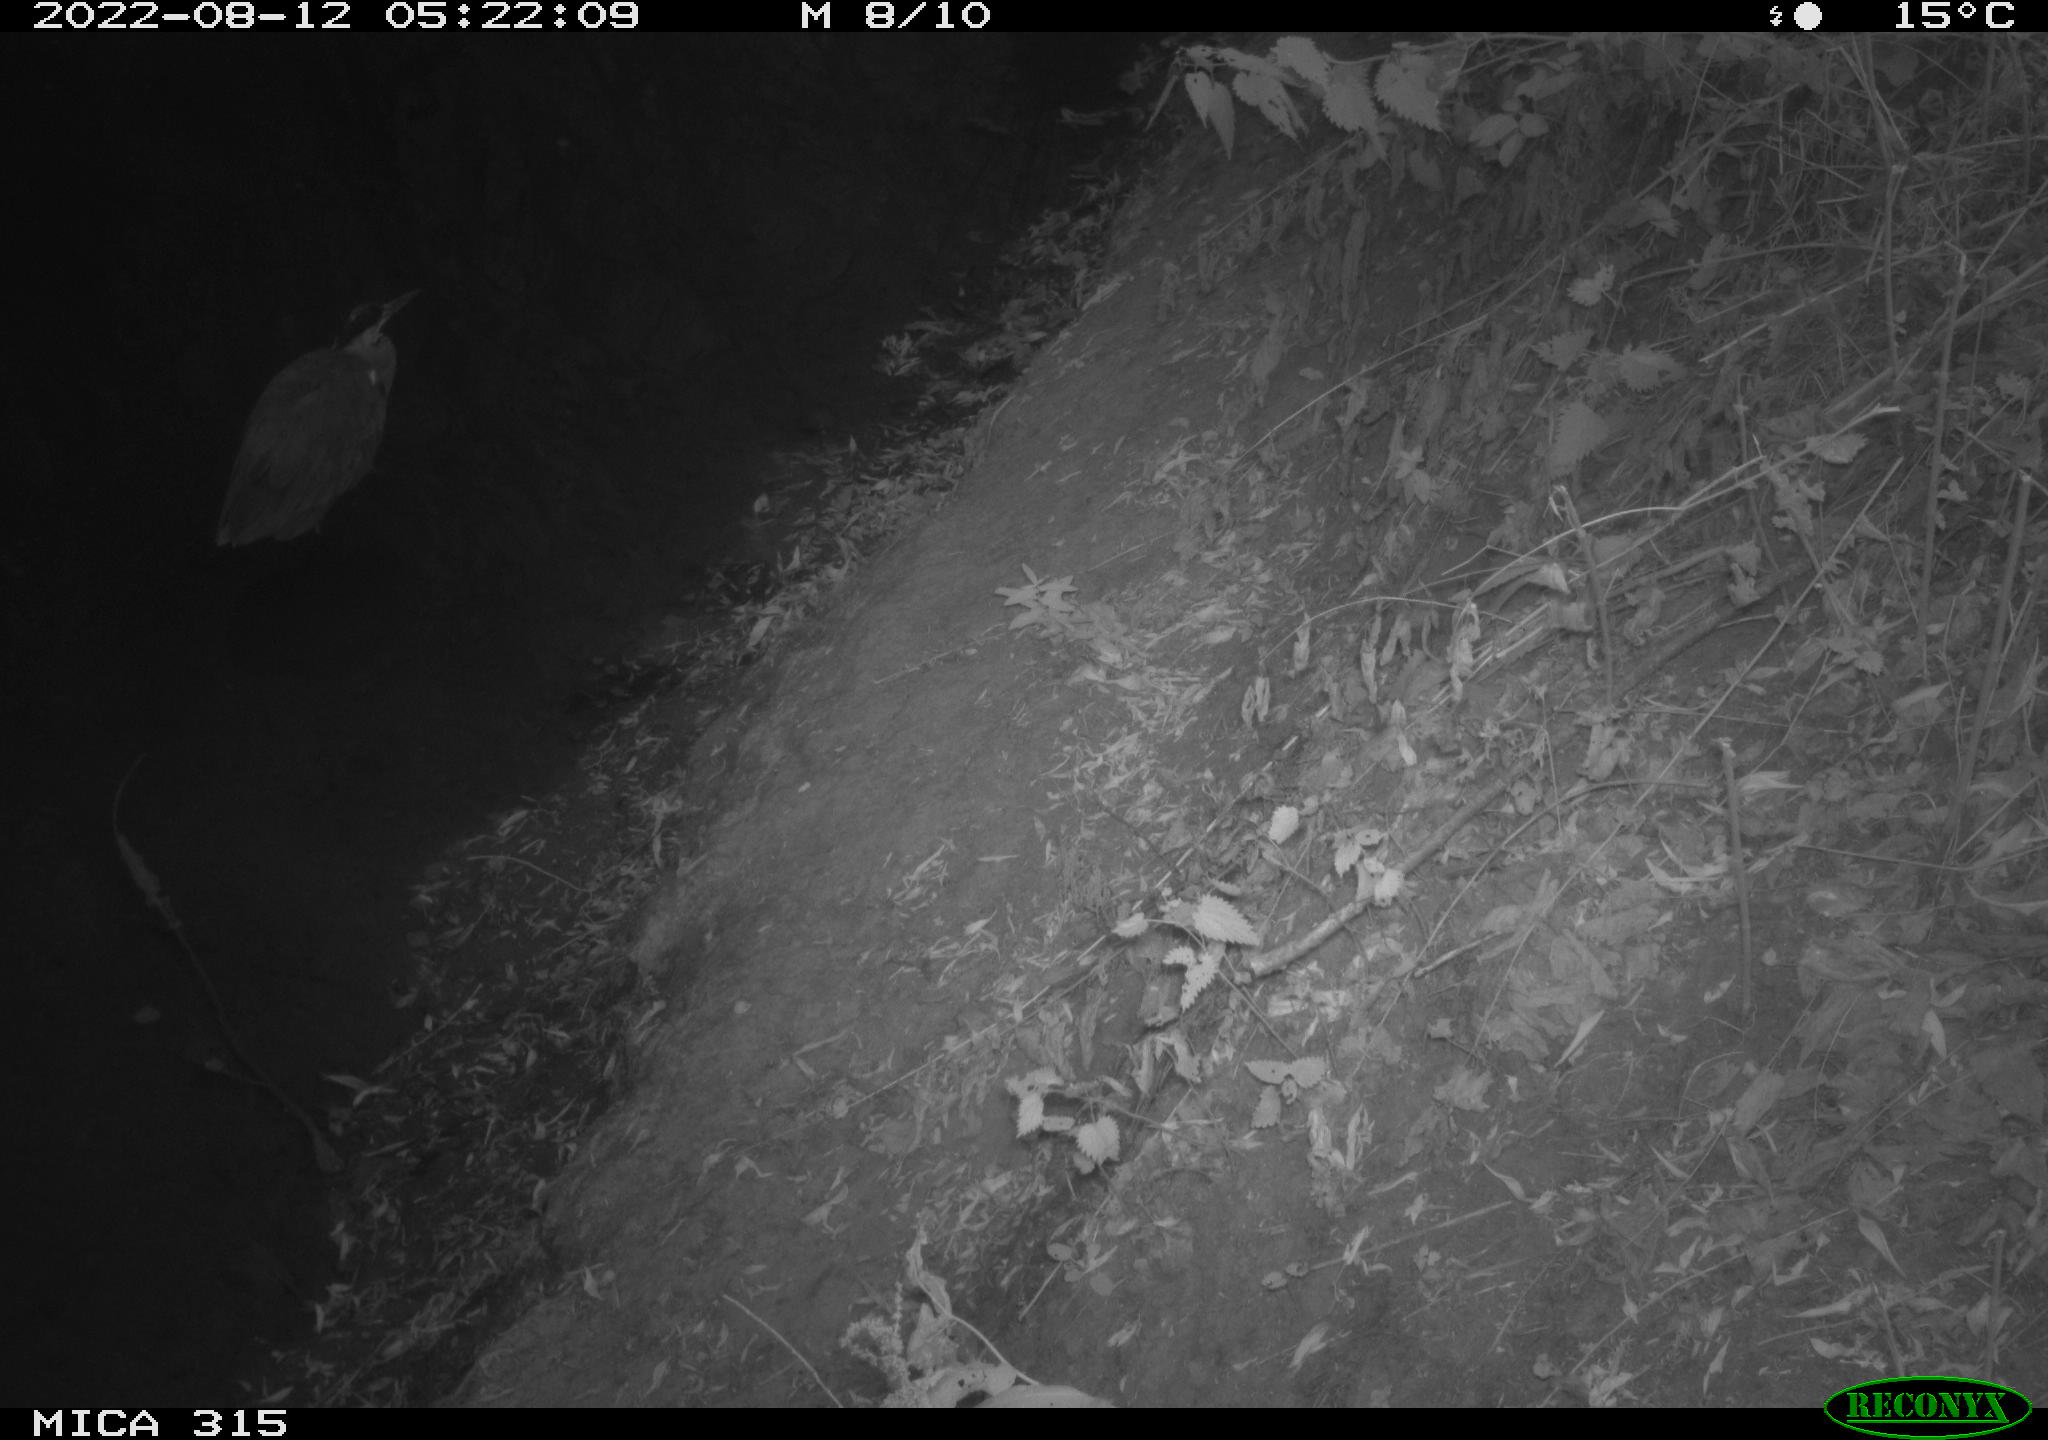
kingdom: Animalia
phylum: Chordata
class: Aves
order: Pelecaniformes
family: Ardeidae
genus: Ardea
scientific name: Ardea cinerea
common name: Grey heron
